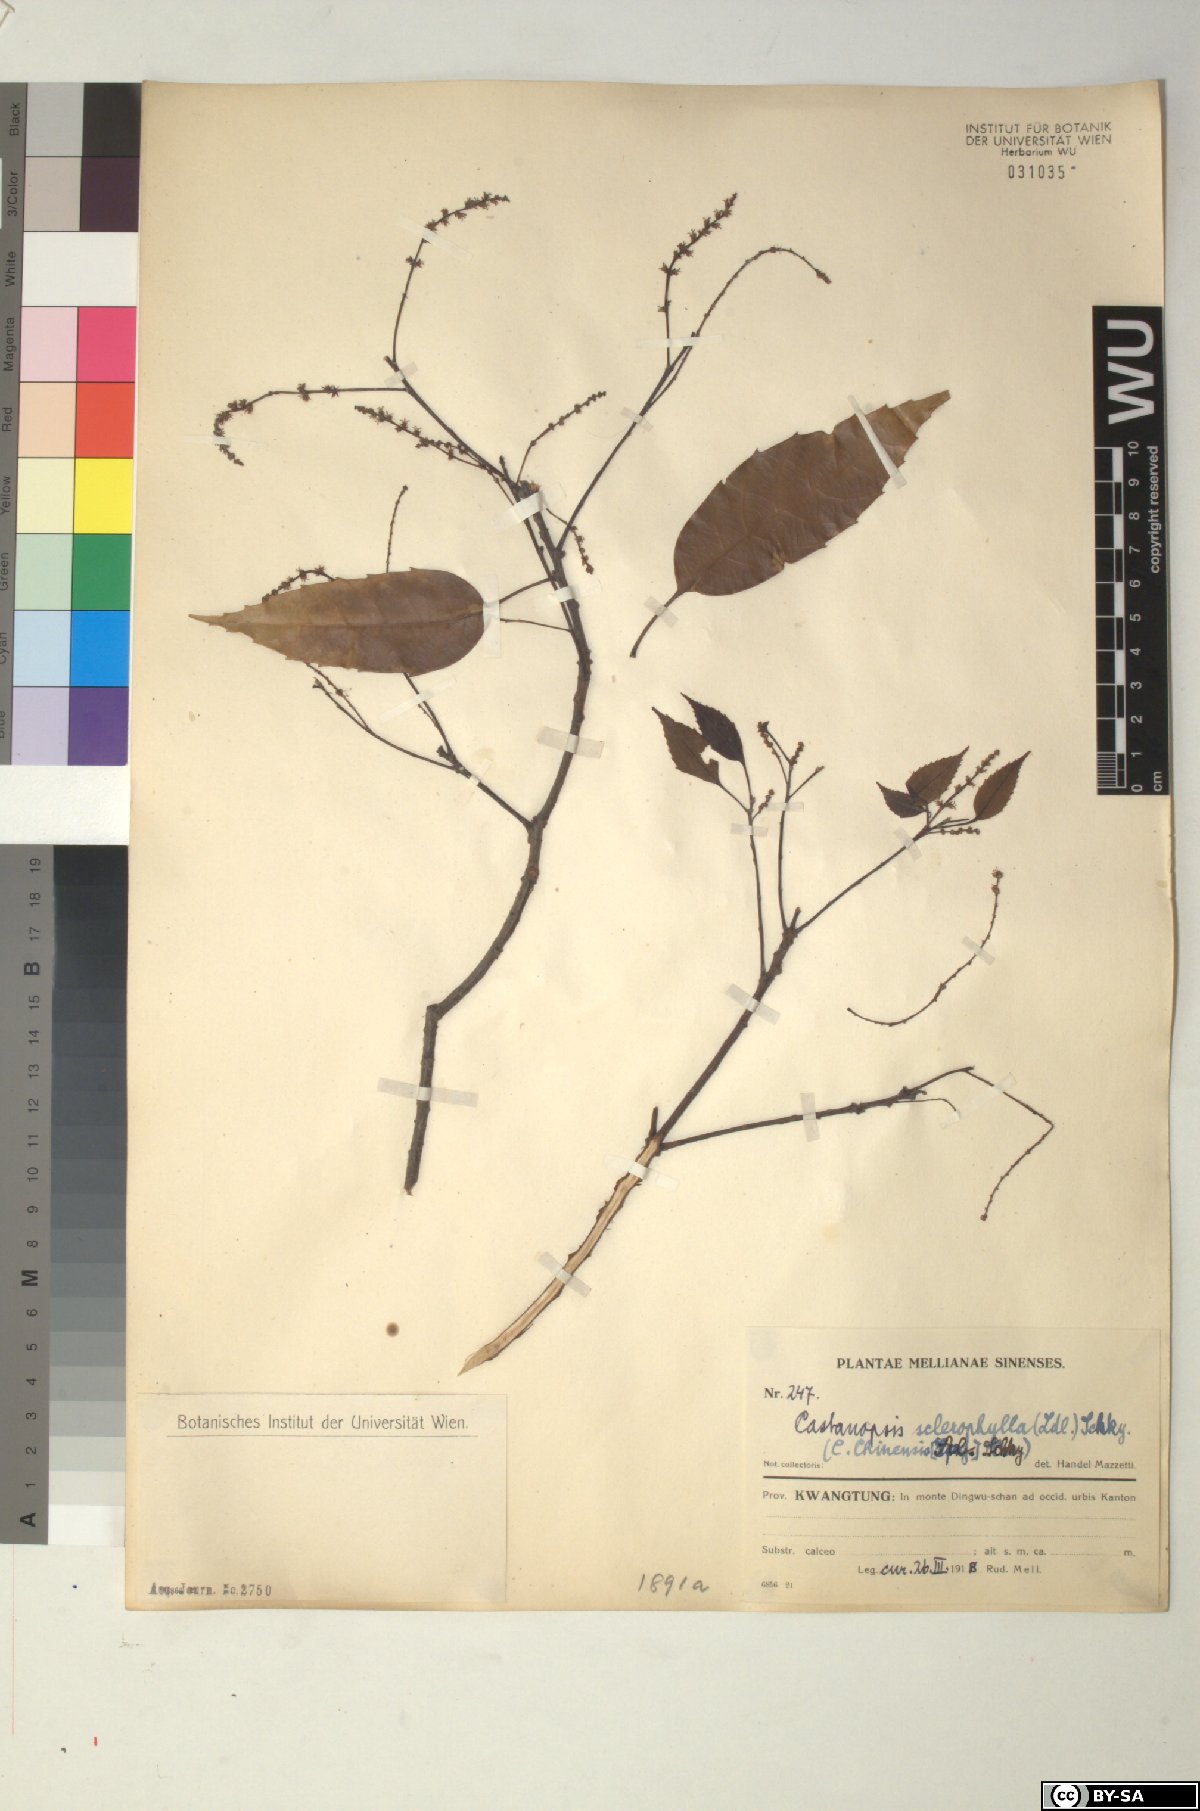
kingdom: Plantae
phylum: Tracheophyta
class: Magnoliopsida
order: Fagales
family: Fagaceae
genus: Castanopsis
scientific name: Castanopsis sclerophylla
